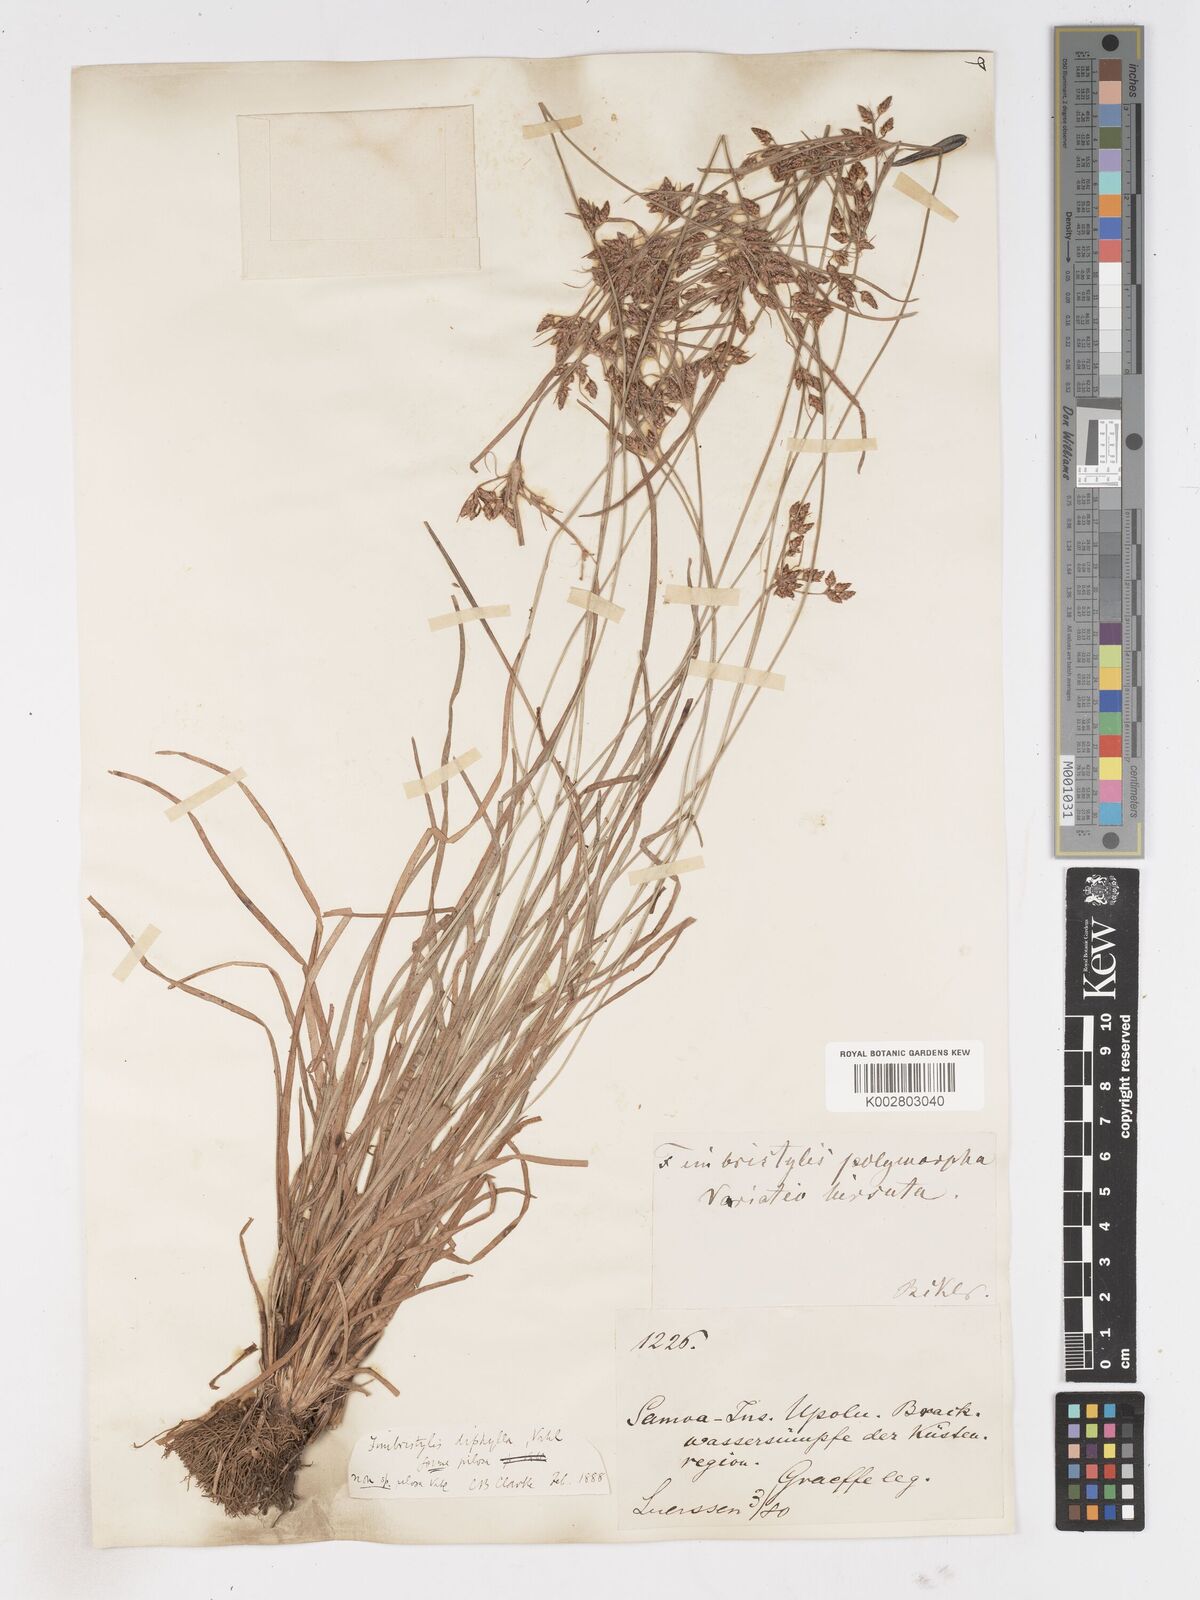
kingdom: Plantae
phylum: Tracheophyta
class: Liliopsida
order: Poales
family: Cyperaceae
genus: Fimbristylis
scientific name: Fimbristylis dichotoma
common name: Forked fimbry
